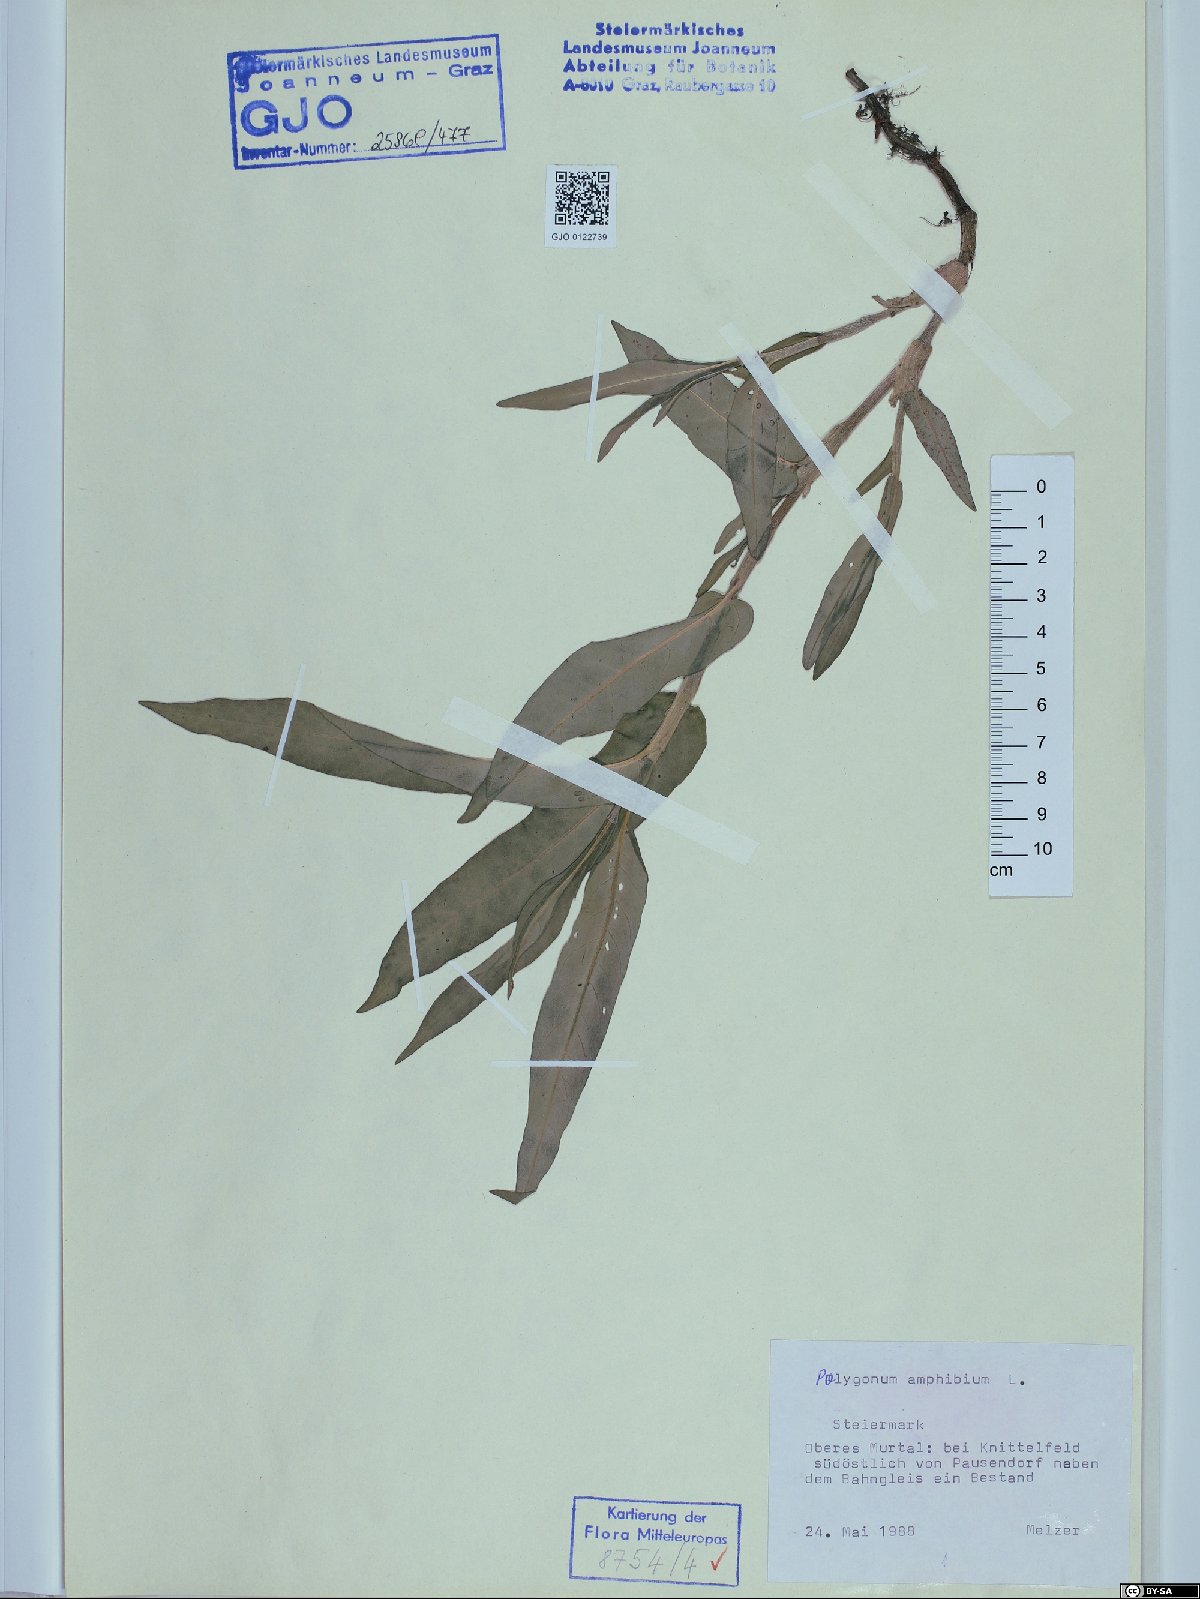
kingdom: Plantae
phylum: Tracheophyta
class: Magnoliopsida
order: Caryophyllales
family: Polygonaceae
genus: Persicaria
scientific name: Persicaria amphibia
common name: Amphibious bistort
